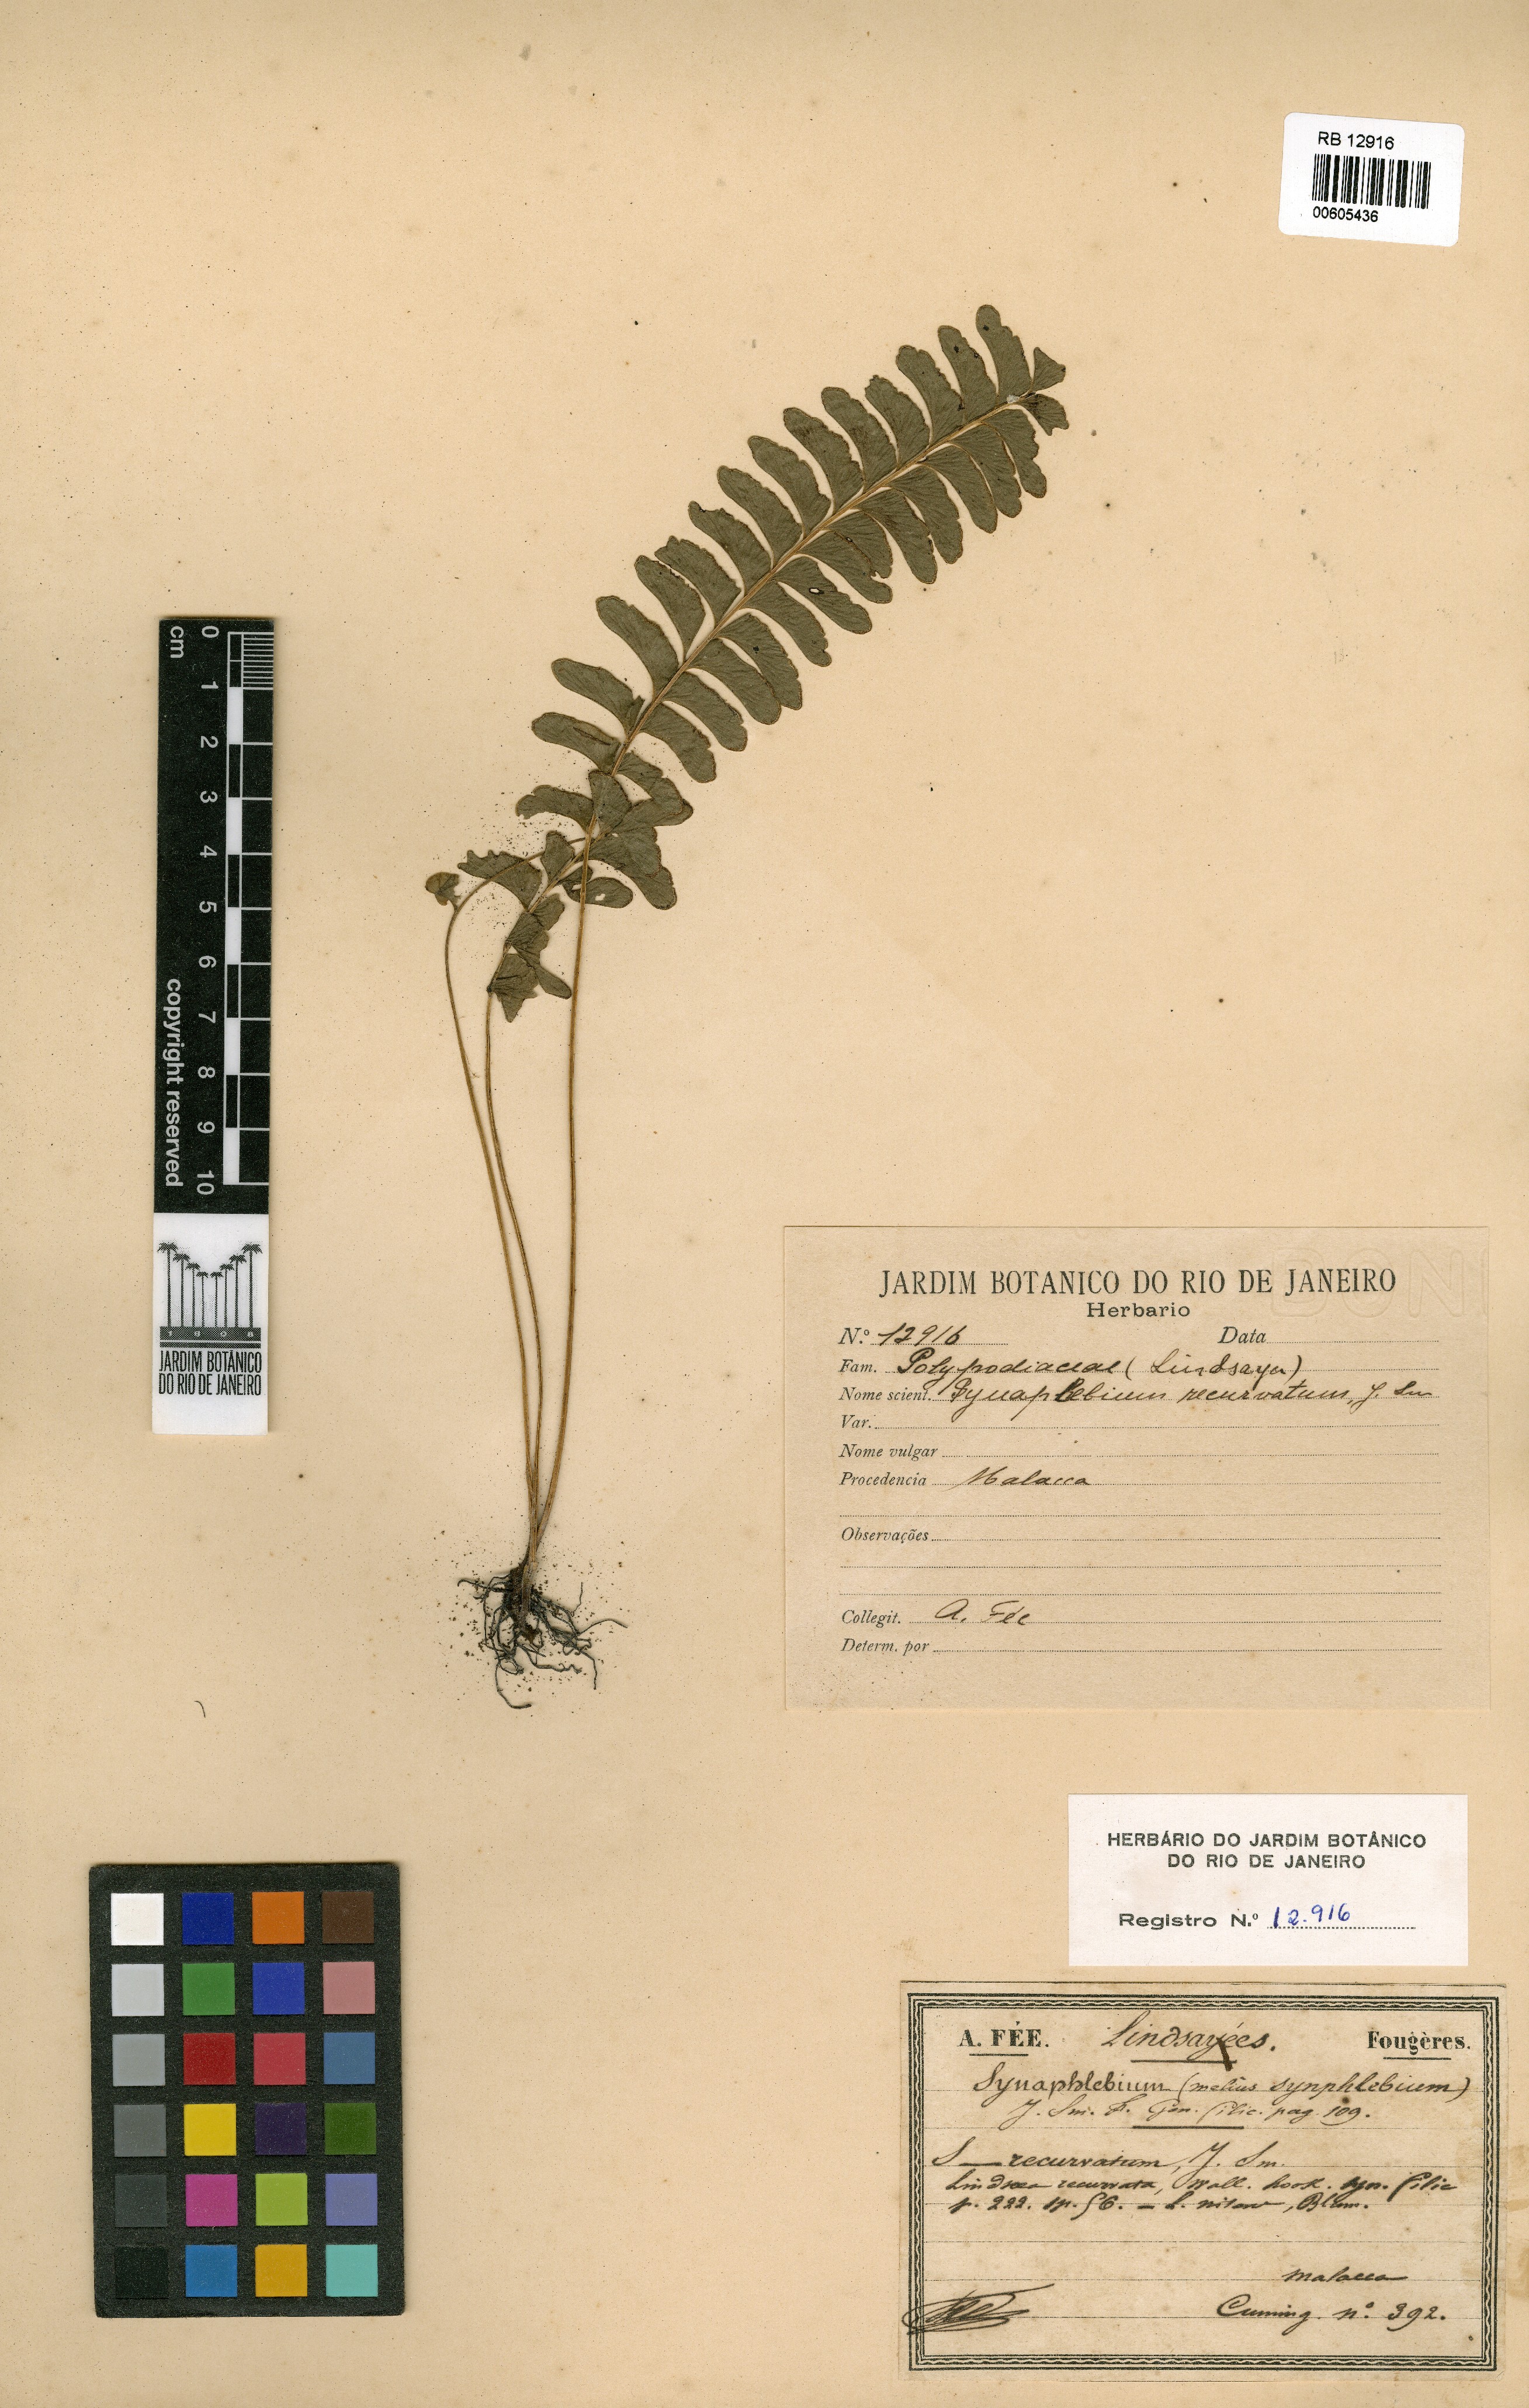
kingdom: Plantae
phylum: Tracheophyta
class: Polypodiopsida
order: Polypodiales
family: Lindsaeaceae
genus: Lindsaea
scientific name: Lindsaea cultrata
